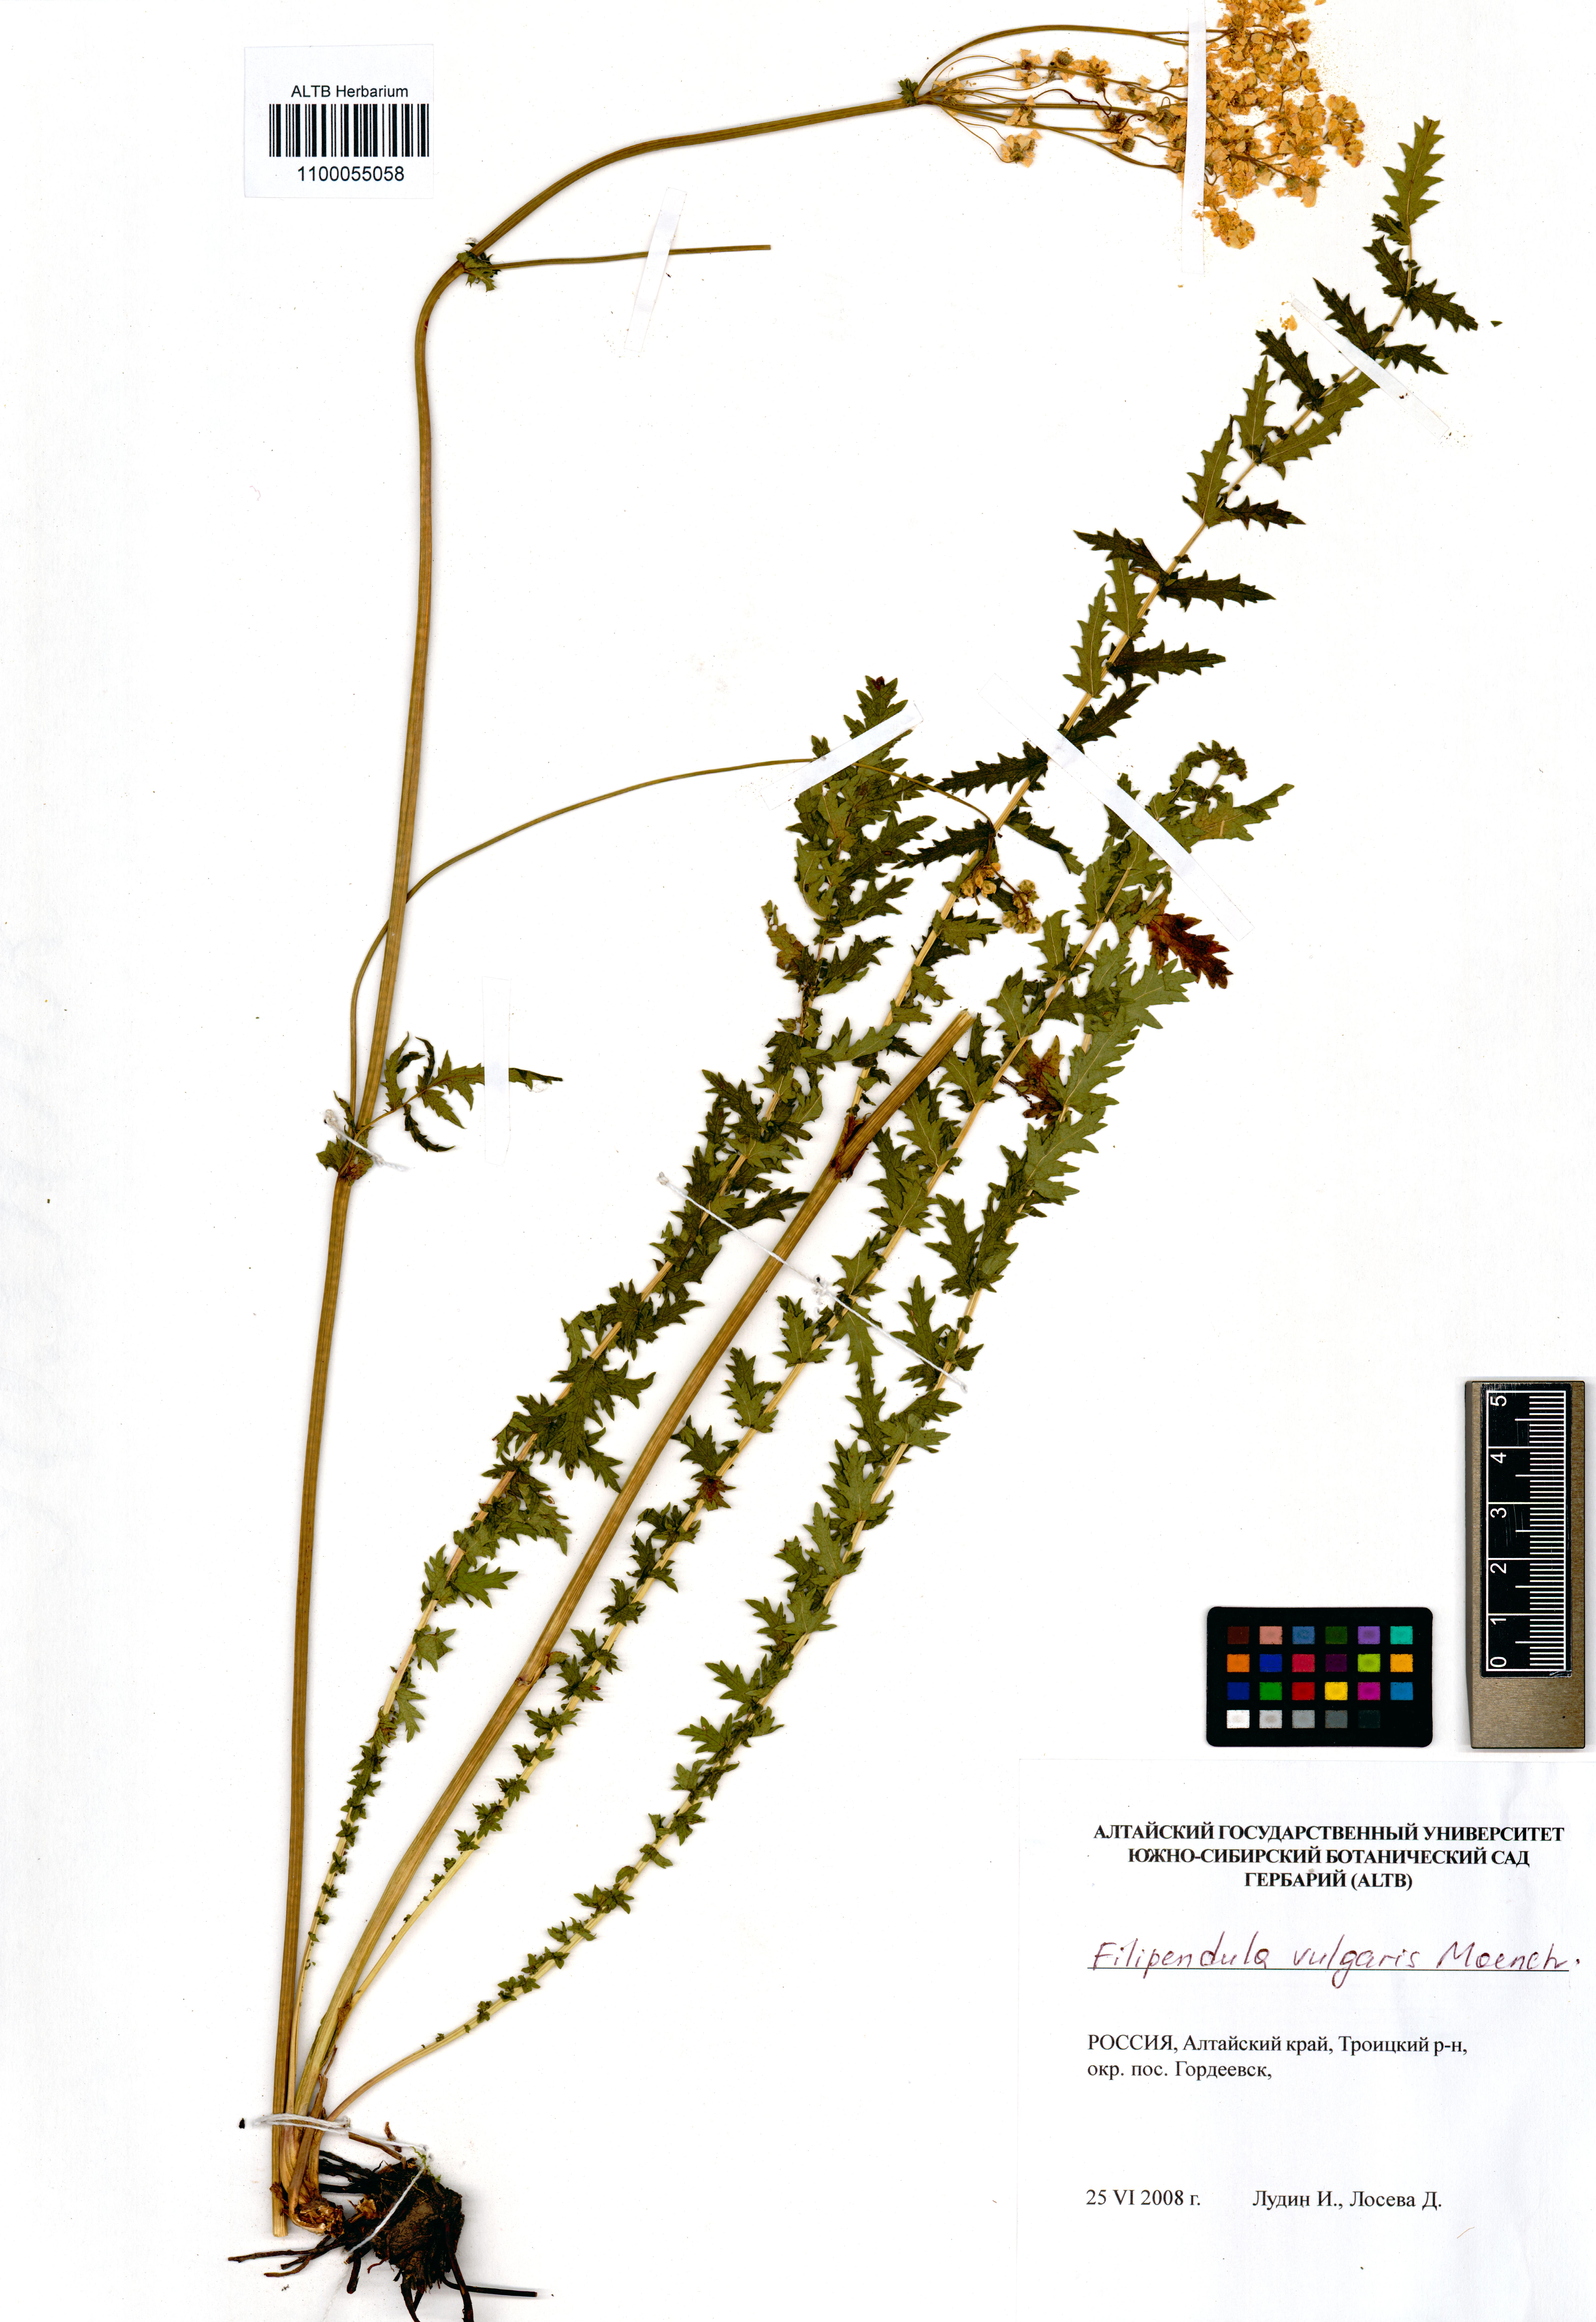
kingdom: Plantae
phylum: Tracheophyta
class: Magnoliopsida
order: Rosales
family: Rosaceae
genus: Filipendula
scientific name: Filipendula vulgaris
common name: Dropwort
